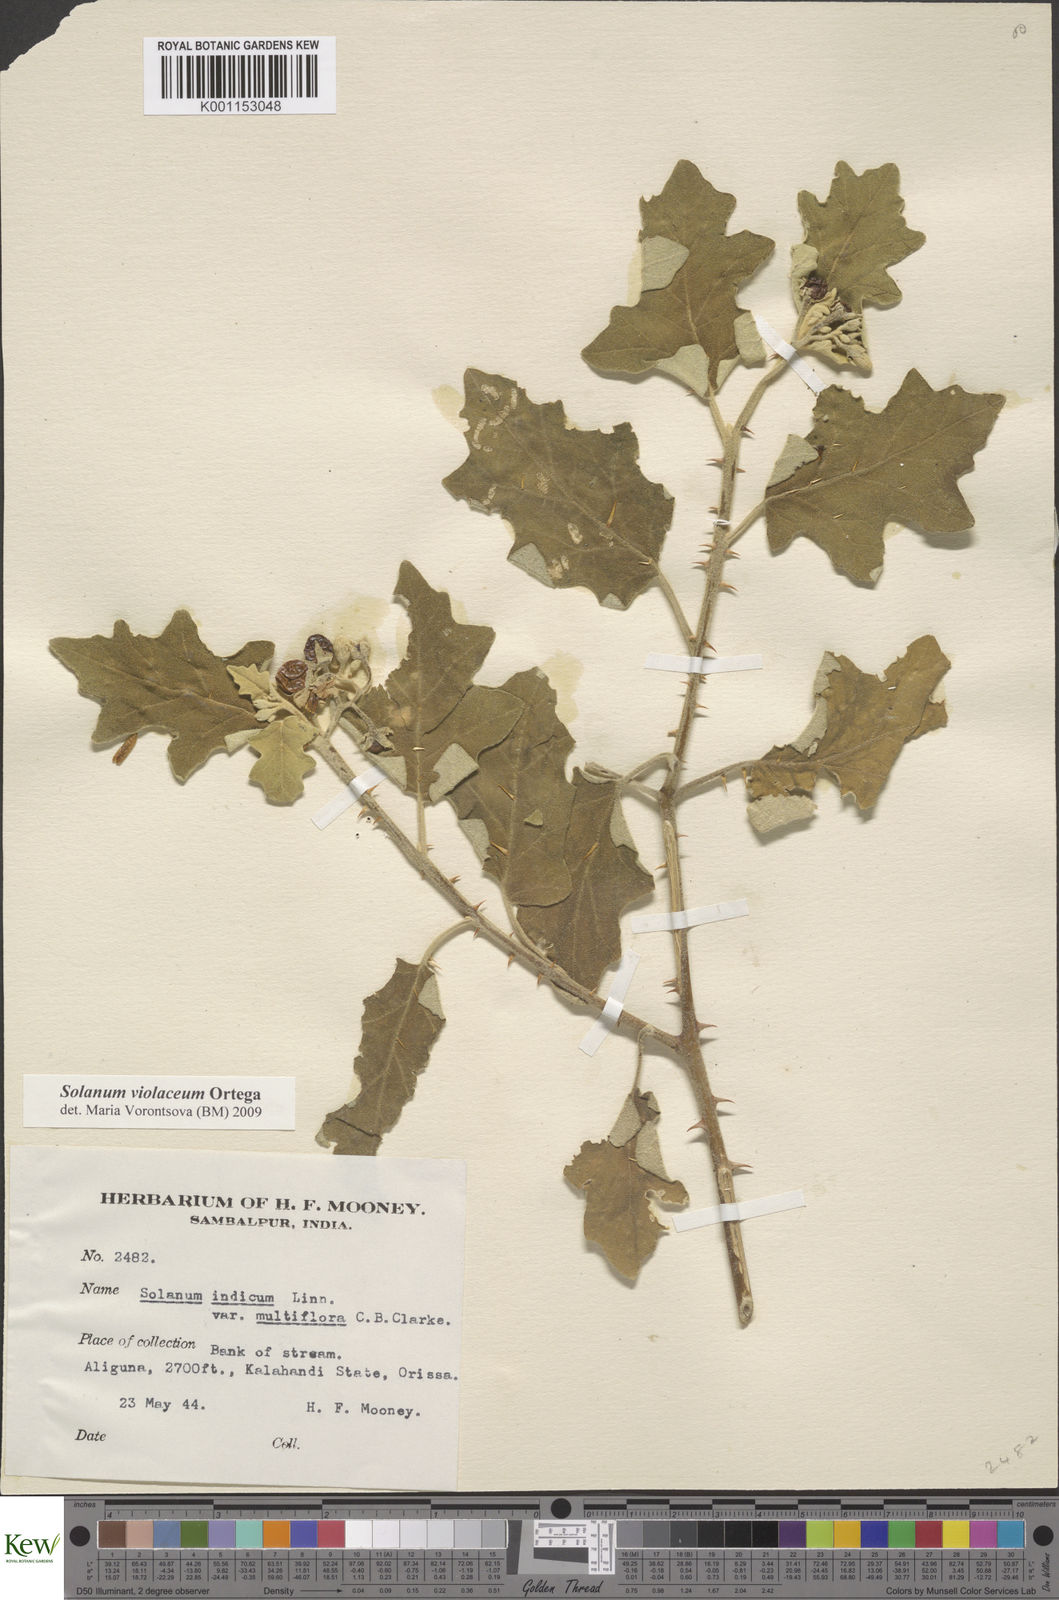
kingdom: Plantae
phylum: Tracheophyta
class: Magnoliopsida
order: Solanales
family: Solanaceae
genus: Solanum
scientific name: Solanum violaceum
